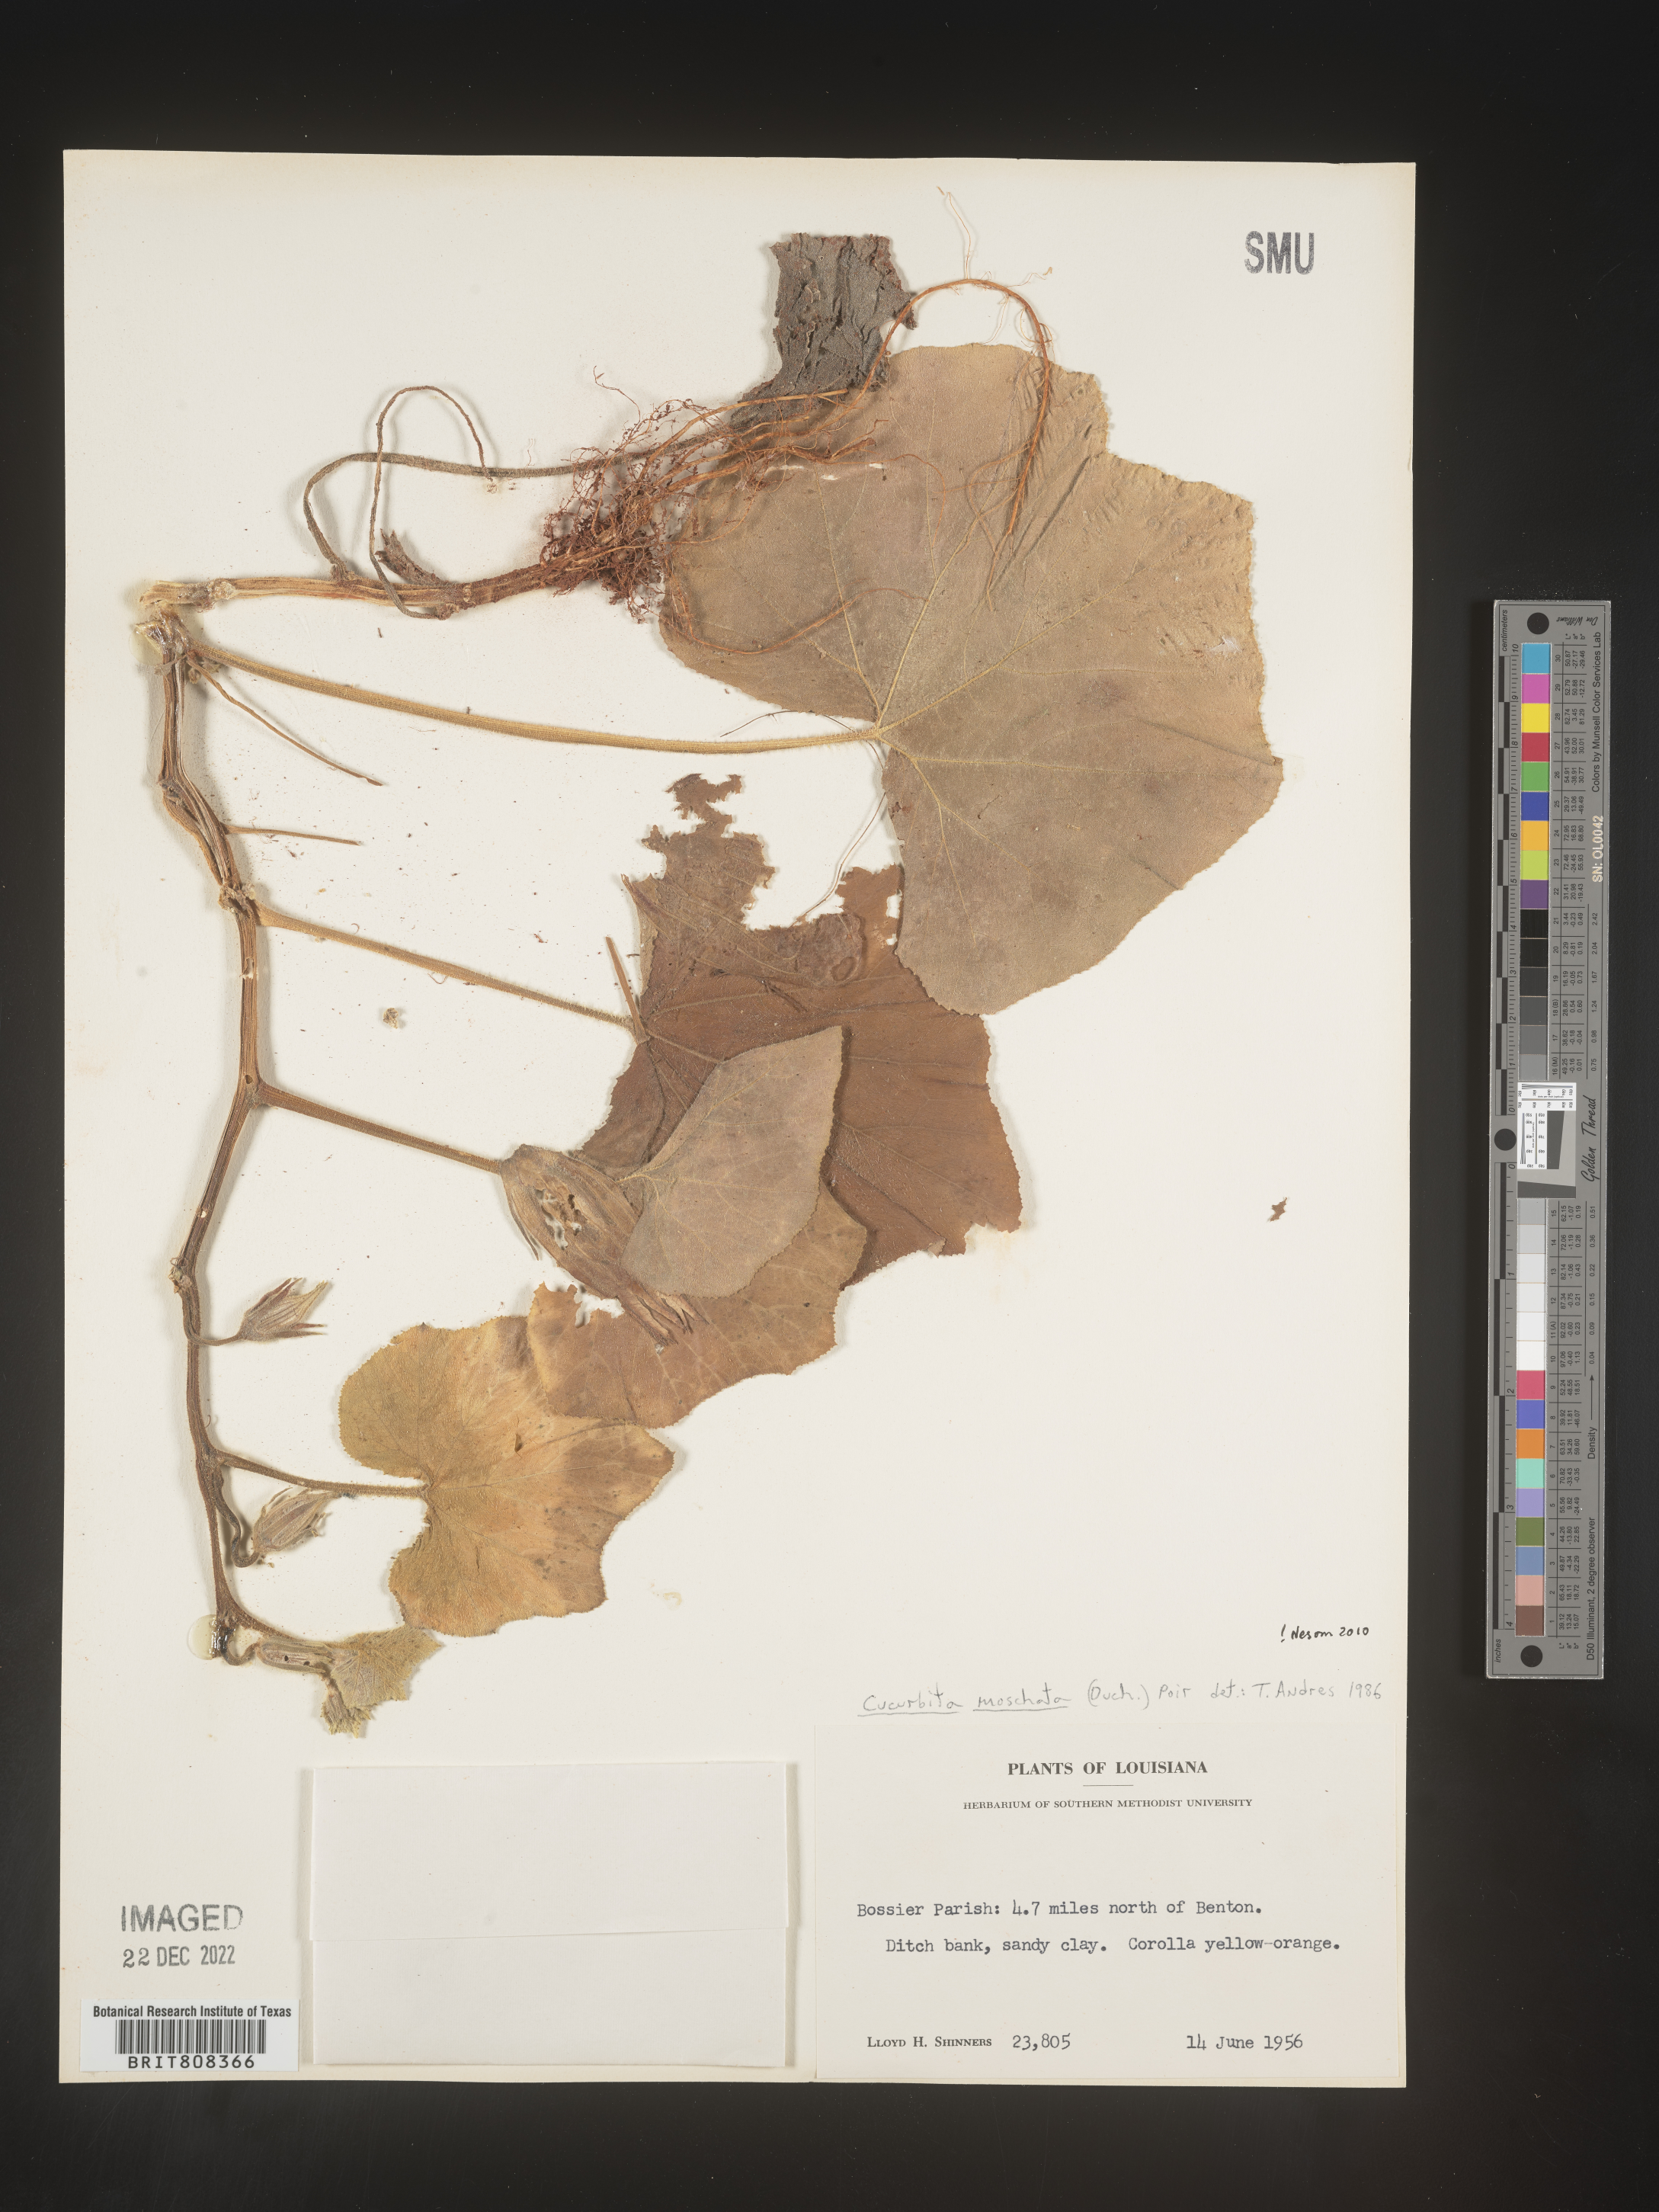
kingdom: Plantae
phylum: Tracheophyta
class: Magnoliopsida
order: Cucurbitales
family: Cucurbitaceae
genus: Cucurbita
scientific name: Cucurbita
